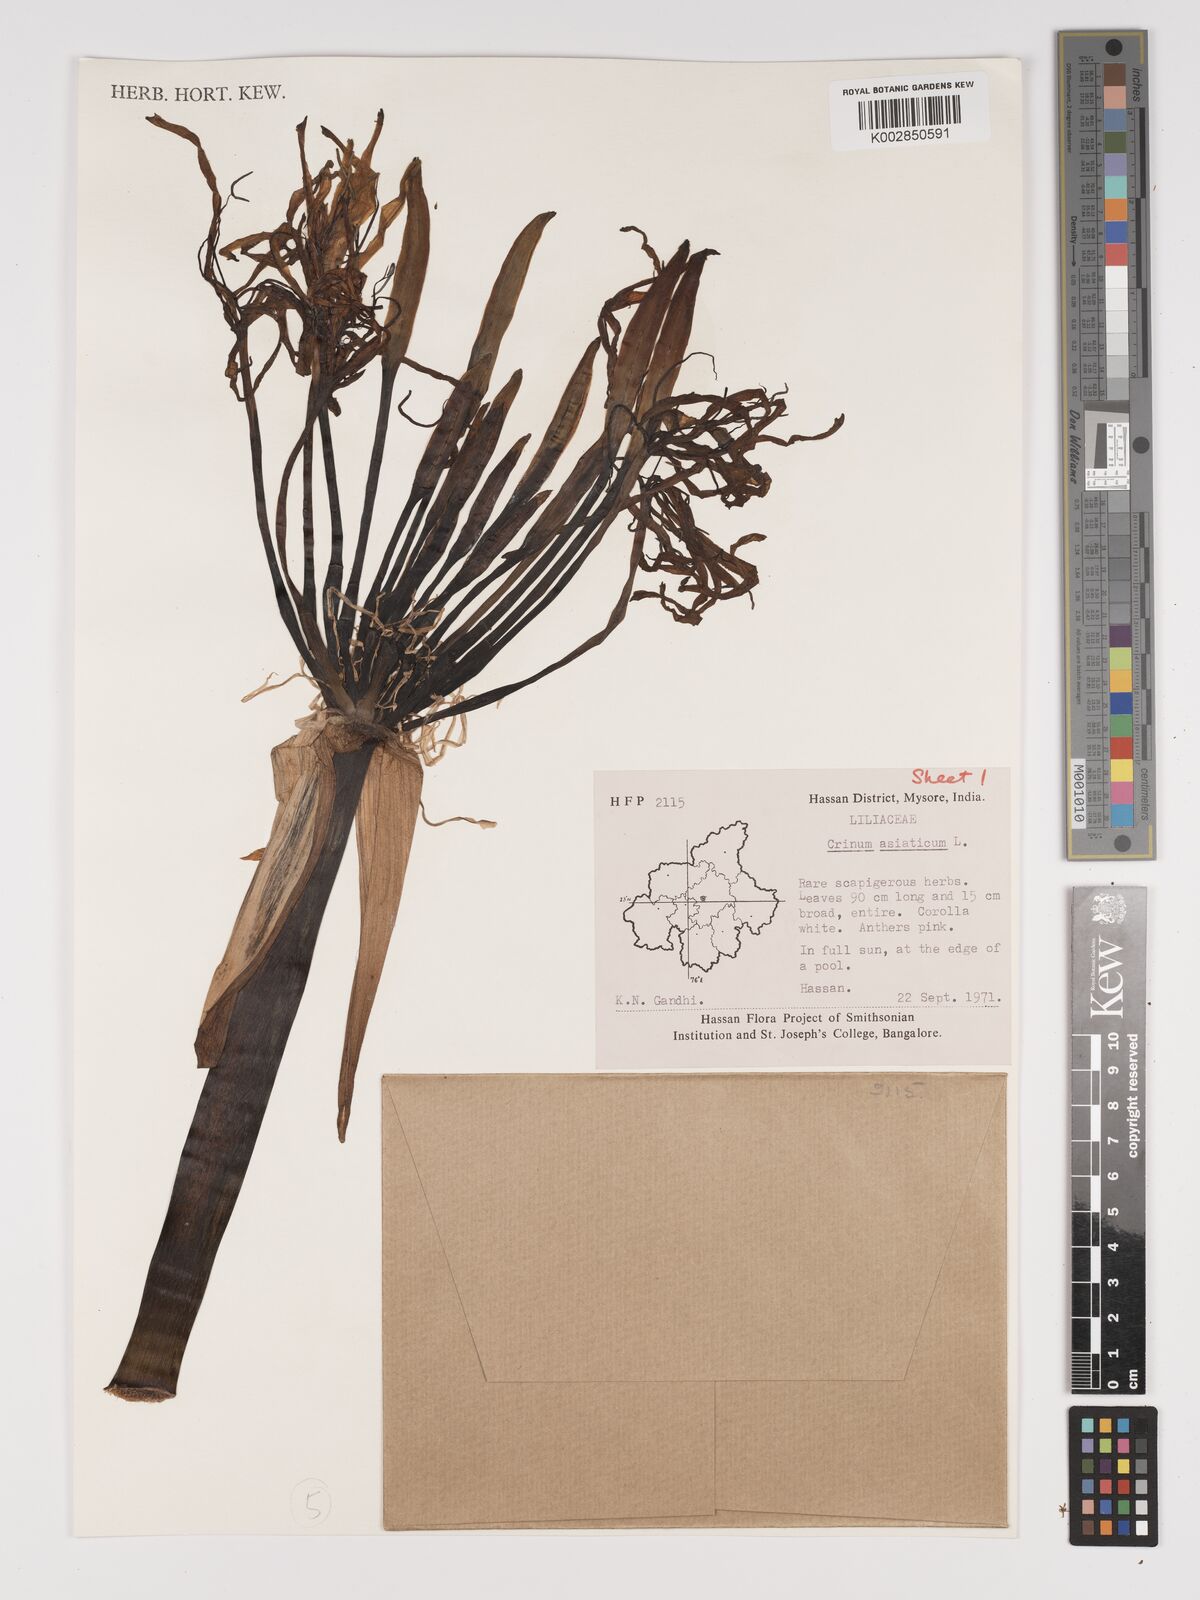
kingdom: Plantae
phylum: Tracheophyta
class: Liliopsida
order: Asparagales
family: Amaryllidaceae
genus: Crinum
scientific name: Crinum asiaticum
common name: Poisonbulb
